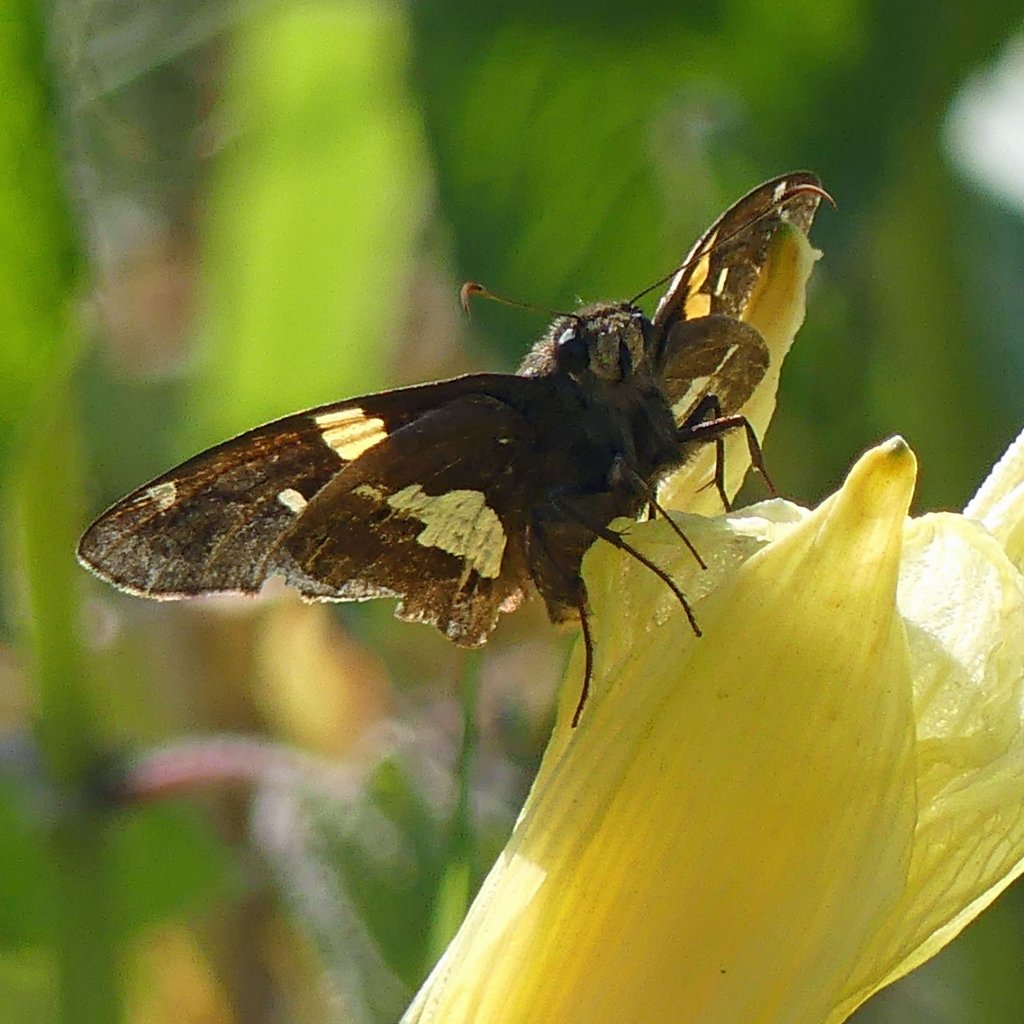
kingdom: Animalia
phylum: Arthropoda
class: Insecta
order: Lepidoptera
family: Hesperiidae
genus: Epargyreus
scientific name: Epargyreus clarus
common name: Silver-spotted Skipper
